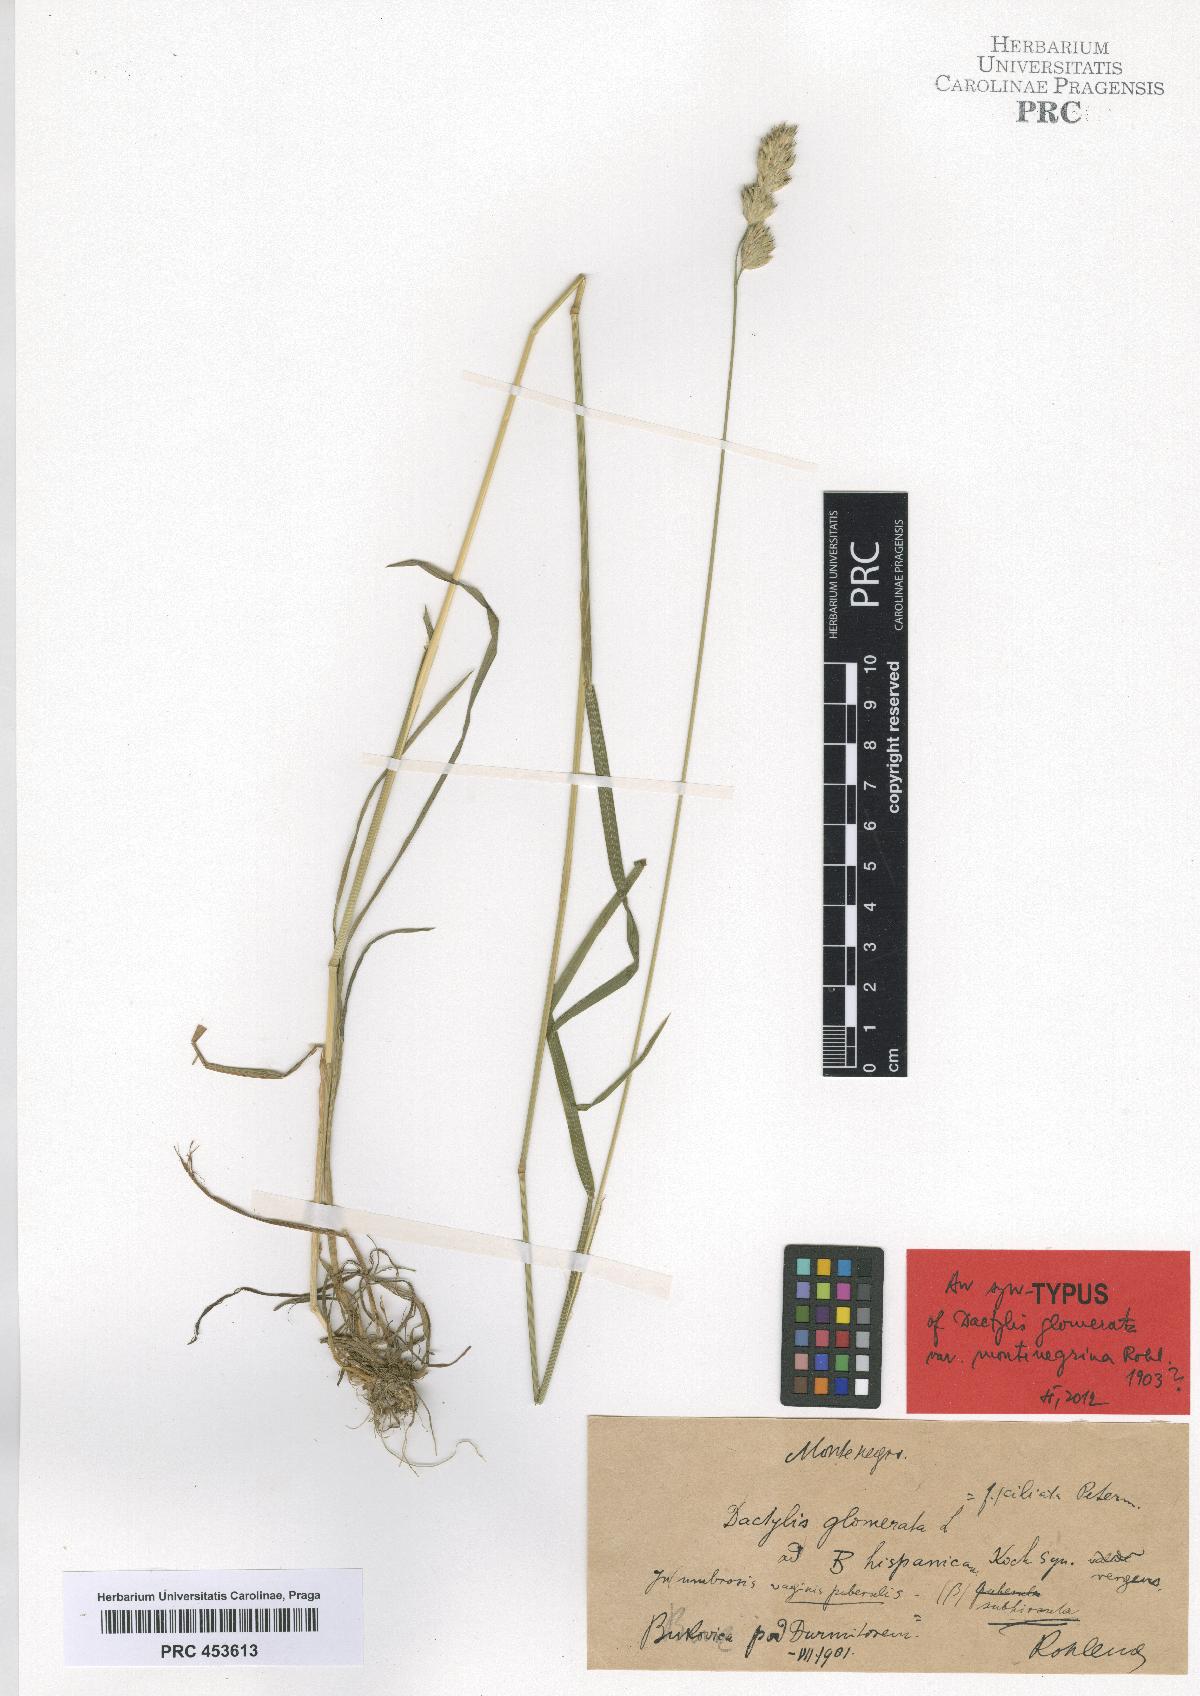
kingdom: Plantae
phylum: Tracheophyta
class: Liliopsida
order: Poales
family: Poaceae
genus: Dactylis
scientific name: Dactylis glomerata
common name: Orchardgrass
